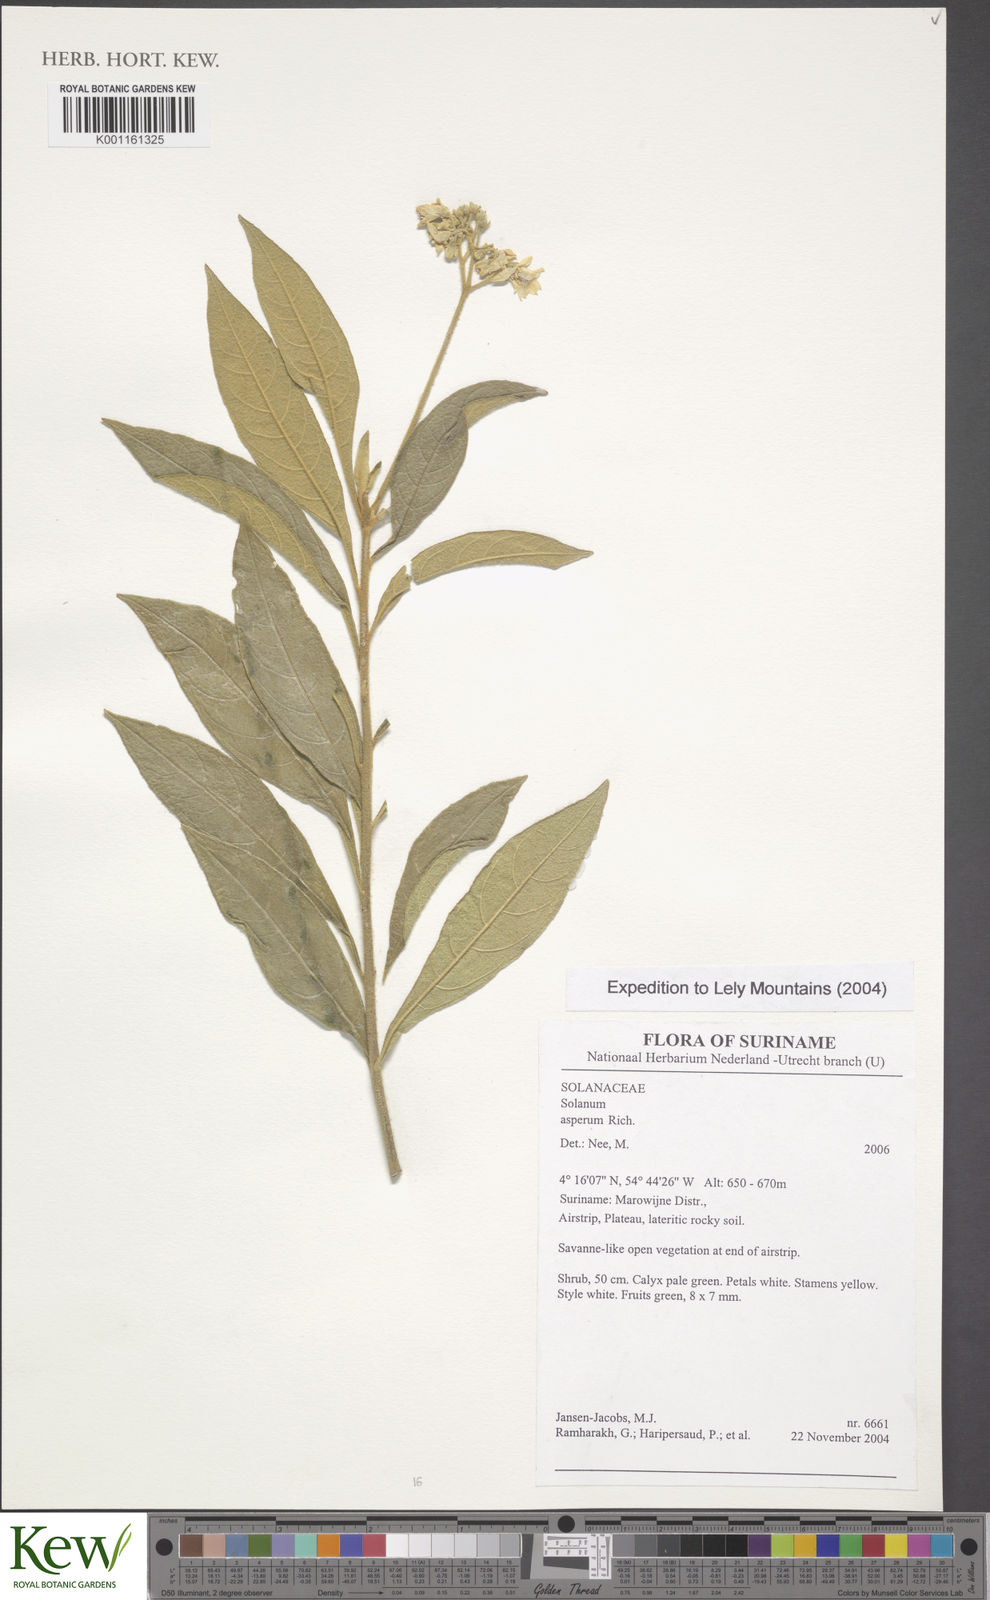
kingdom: Plantae
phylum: Tracheophyta
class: Magnoliopsida
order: Solanales
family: Solanaceae
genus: Solanum
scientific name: Solanum asperum
